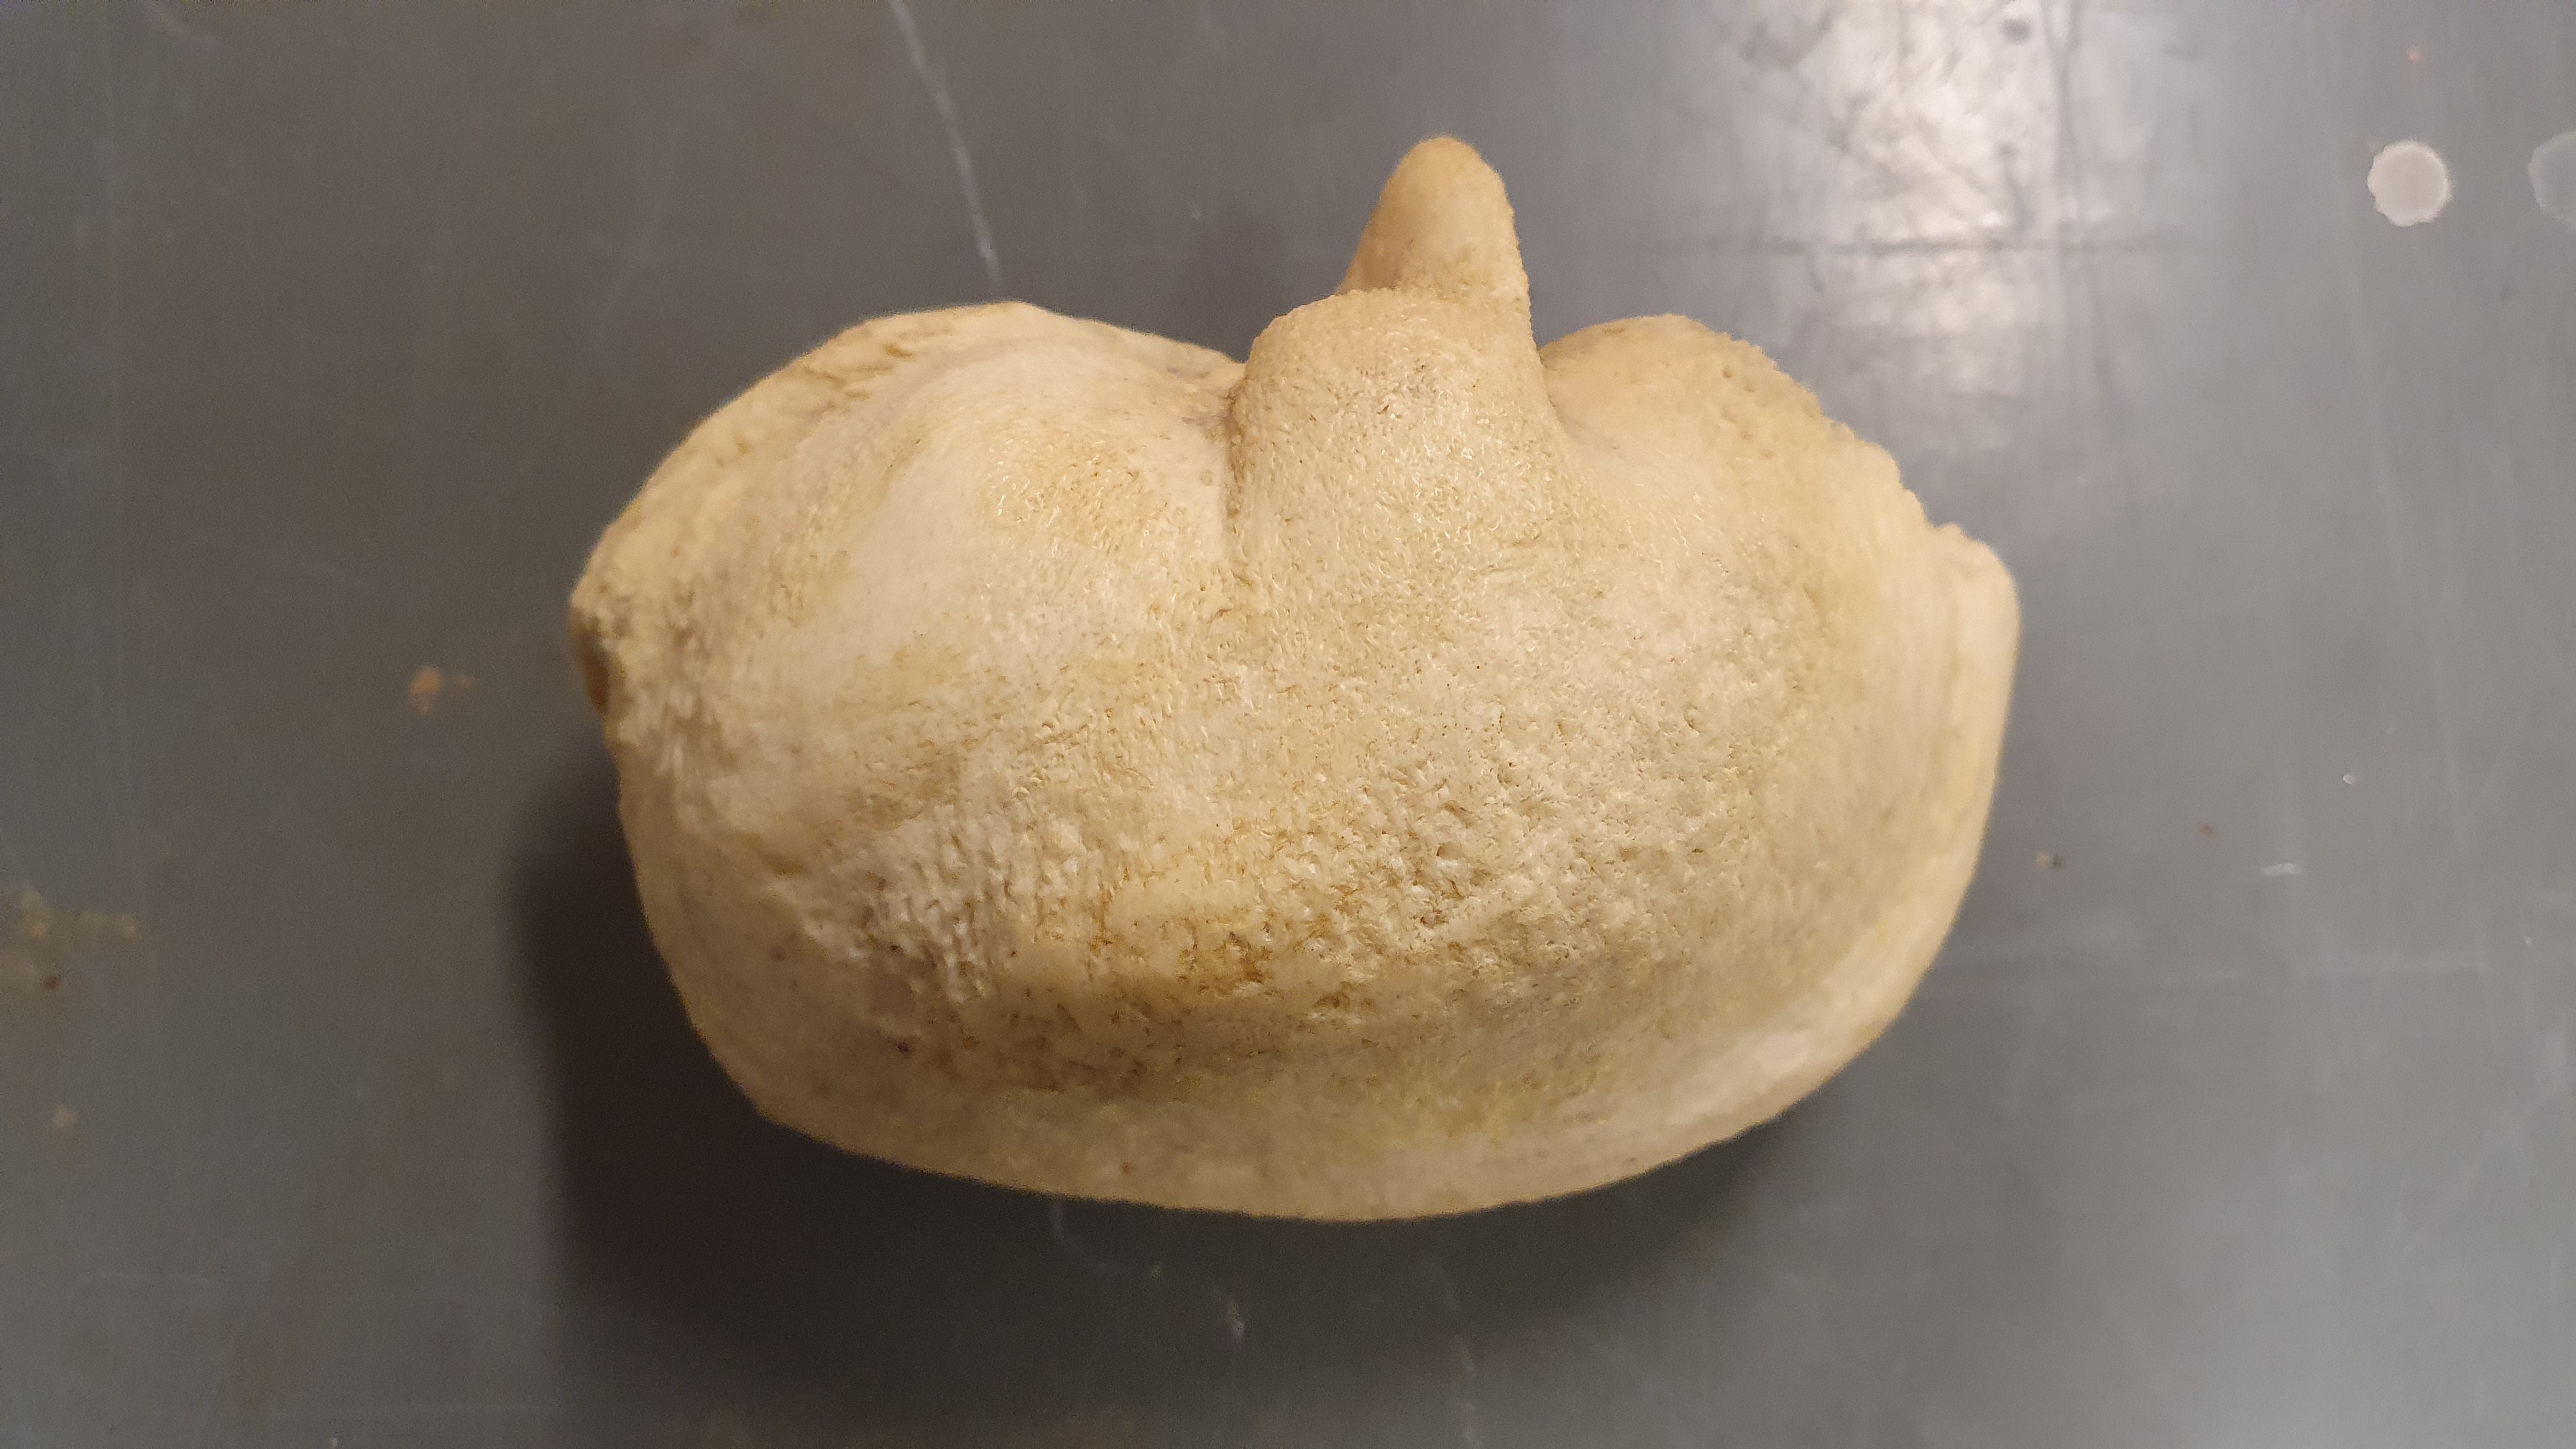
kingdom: Animalia
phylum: Chordata
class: Mammalia
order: Cetacea
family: Balaenopteridae
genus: Balaenoptera
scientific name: Balaenoptera borealis
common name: Sei whale
